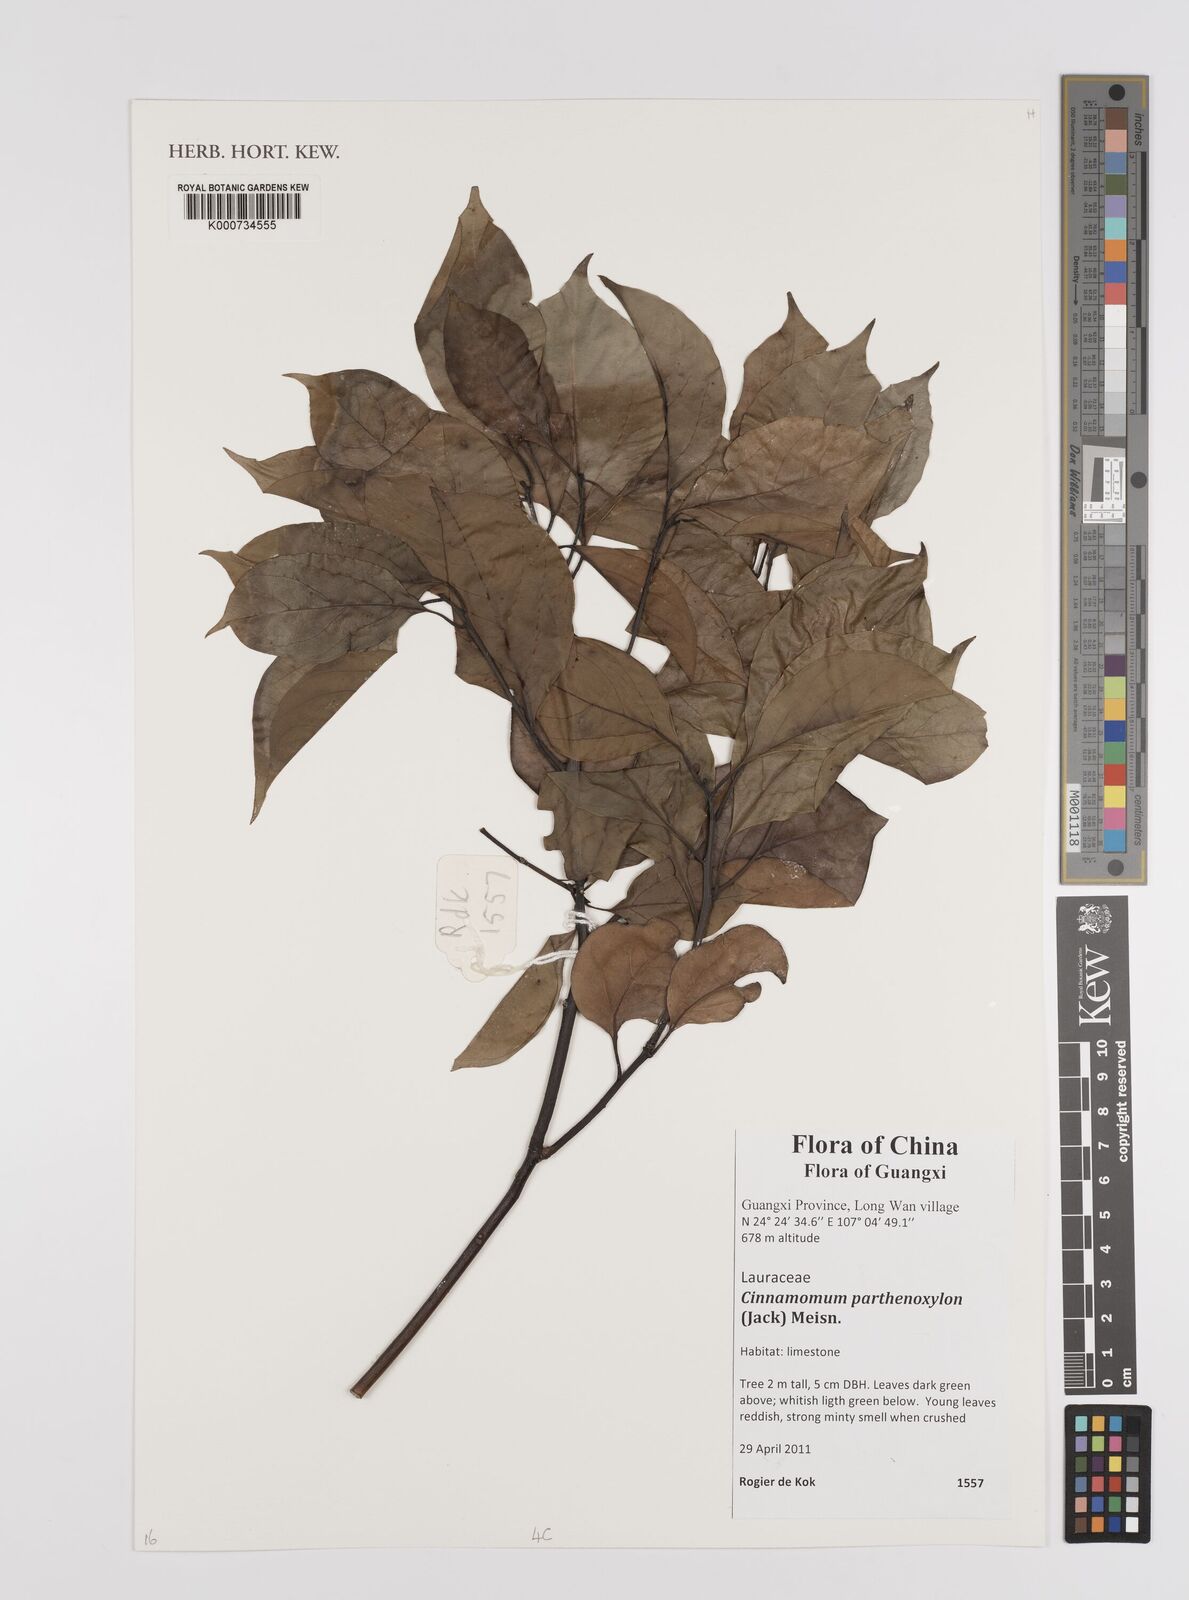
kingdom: Plantae
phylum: Tracheophyta
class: Magnoliopsida
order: Laurales
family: Lauraceae
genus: Cinnamomum
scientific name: Cinnamomum parthenoxylon
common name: Martaban camphor wood
